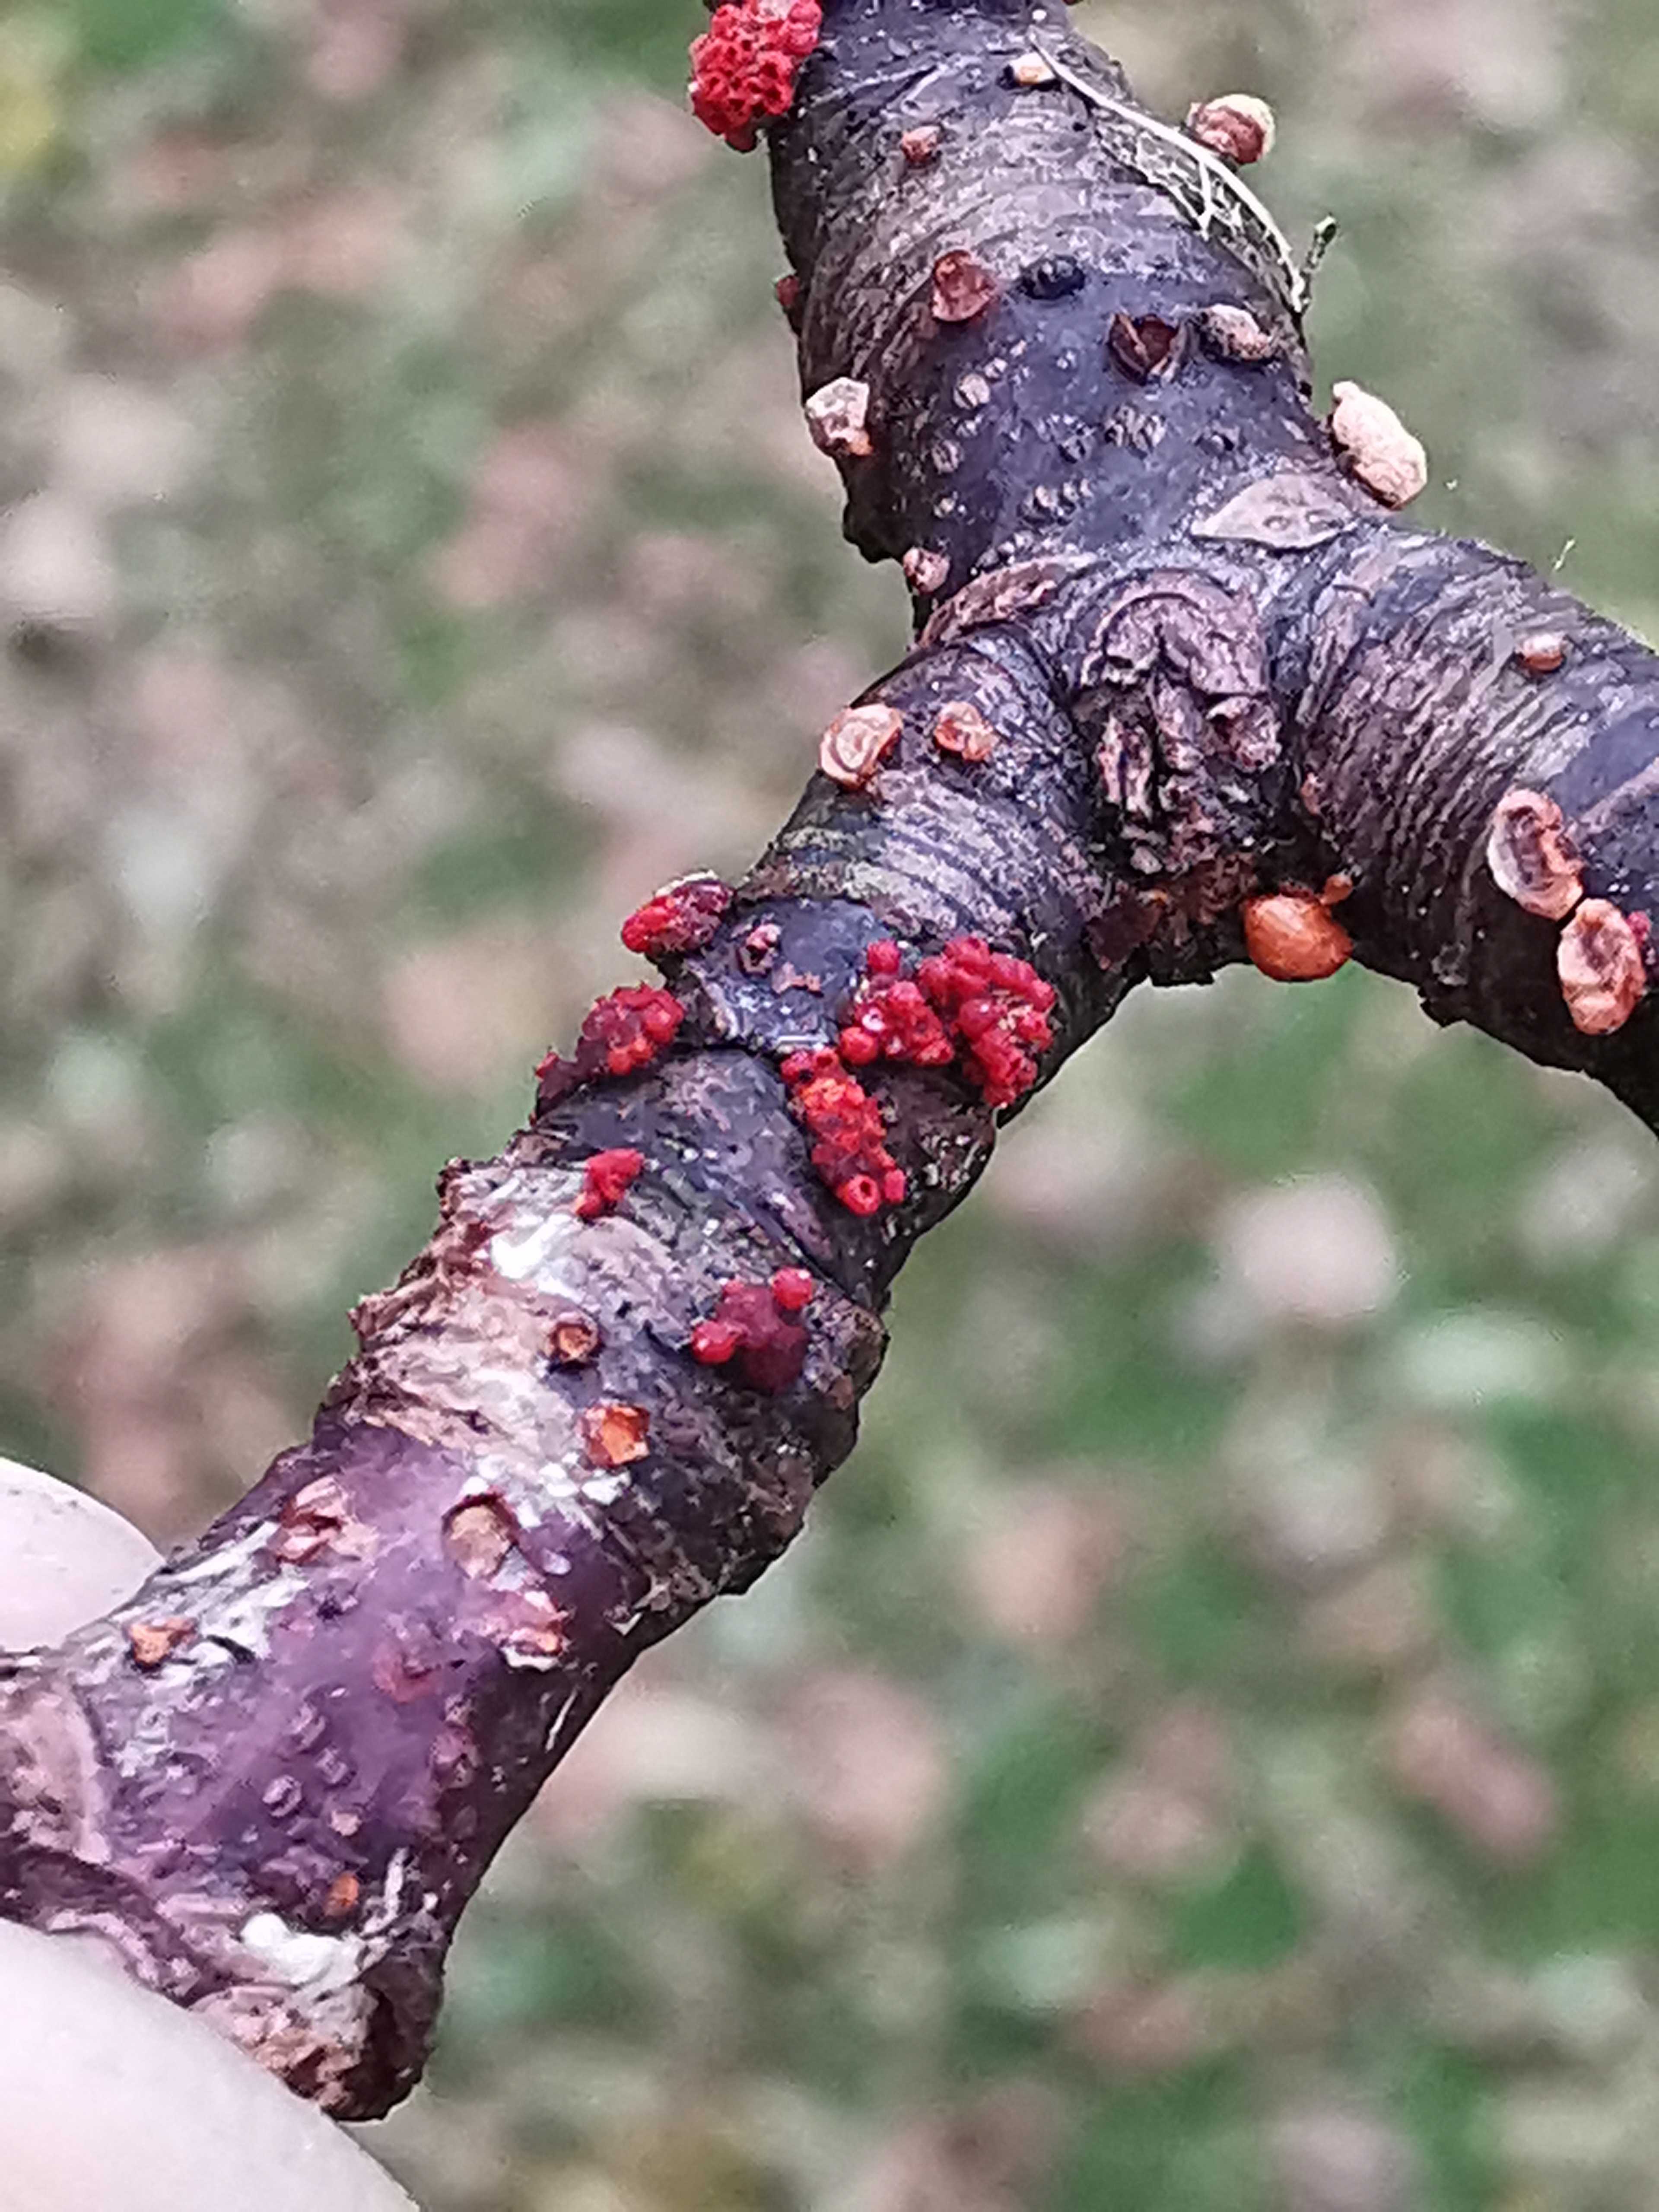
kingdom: Fungi
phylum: Ascomycota
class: Sordariomycetes
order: Hypocreales
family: Nectriaceae
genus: Nectria
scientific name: Nectria cinnabarina
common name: almindelig cinnobersvamp
